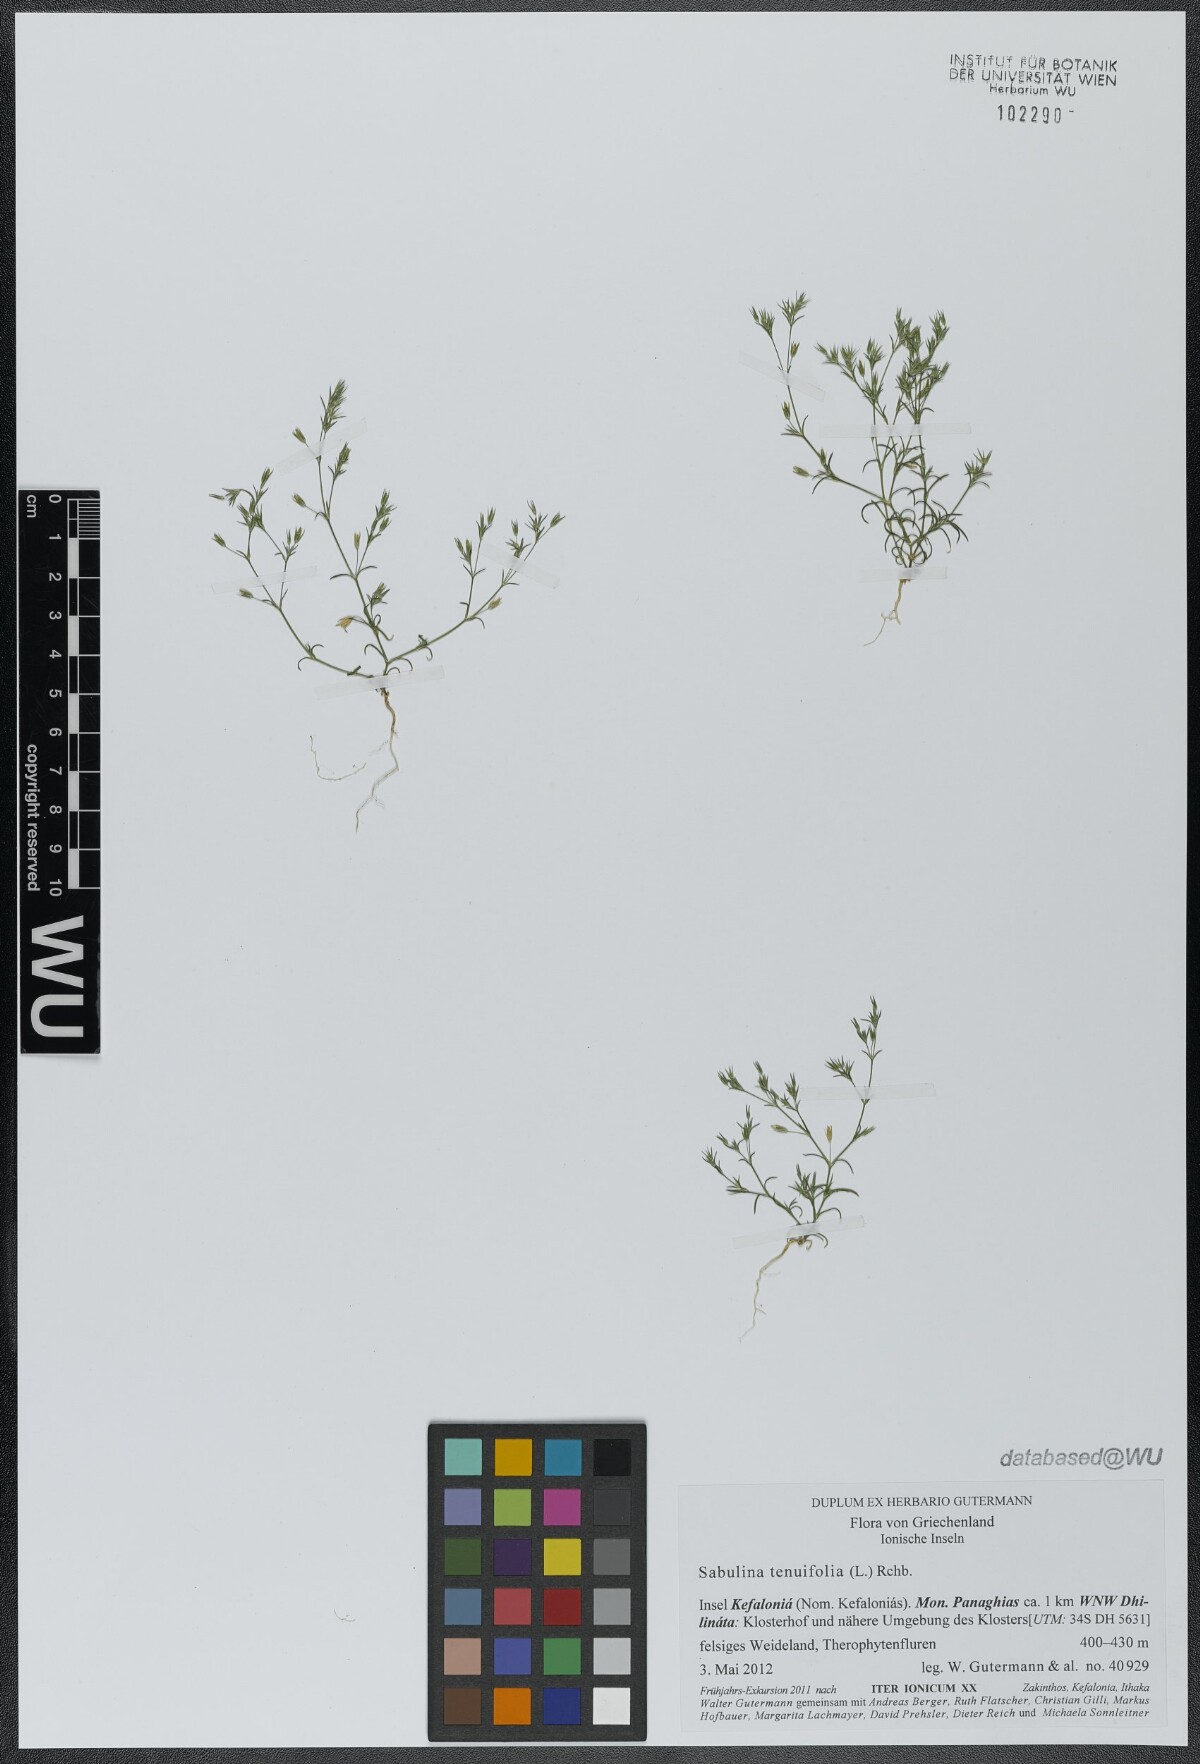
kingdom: Plantae
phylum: Tracheophyta
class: Magnoliopsida
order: Caryophyllales
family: Caryophyllaceae
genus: Sabulina
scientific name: Sabulina tenuifolia
